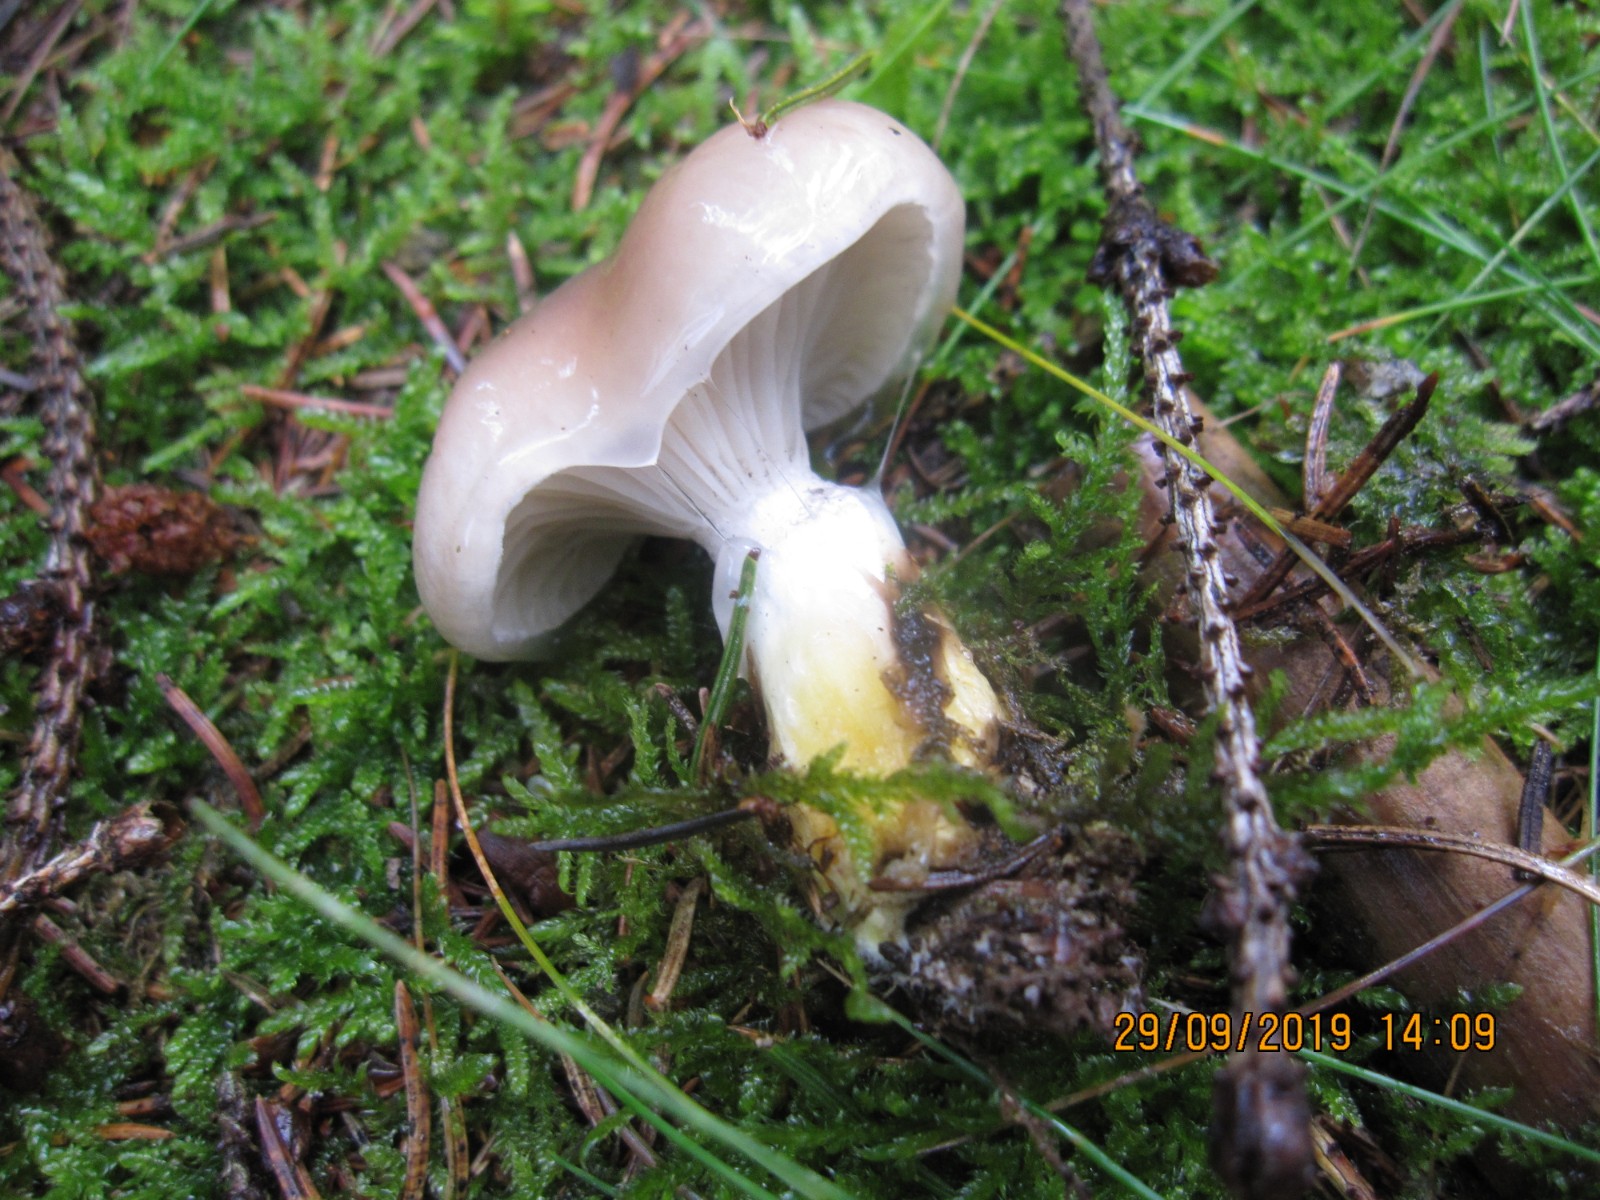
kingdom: Fungi
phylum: Basidiomycota
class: Agaricomycetes
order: Boletales
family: Gomphidiaceae
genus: Gomphidius
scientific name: Gomphidius glutinosus
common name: grå slimslør
